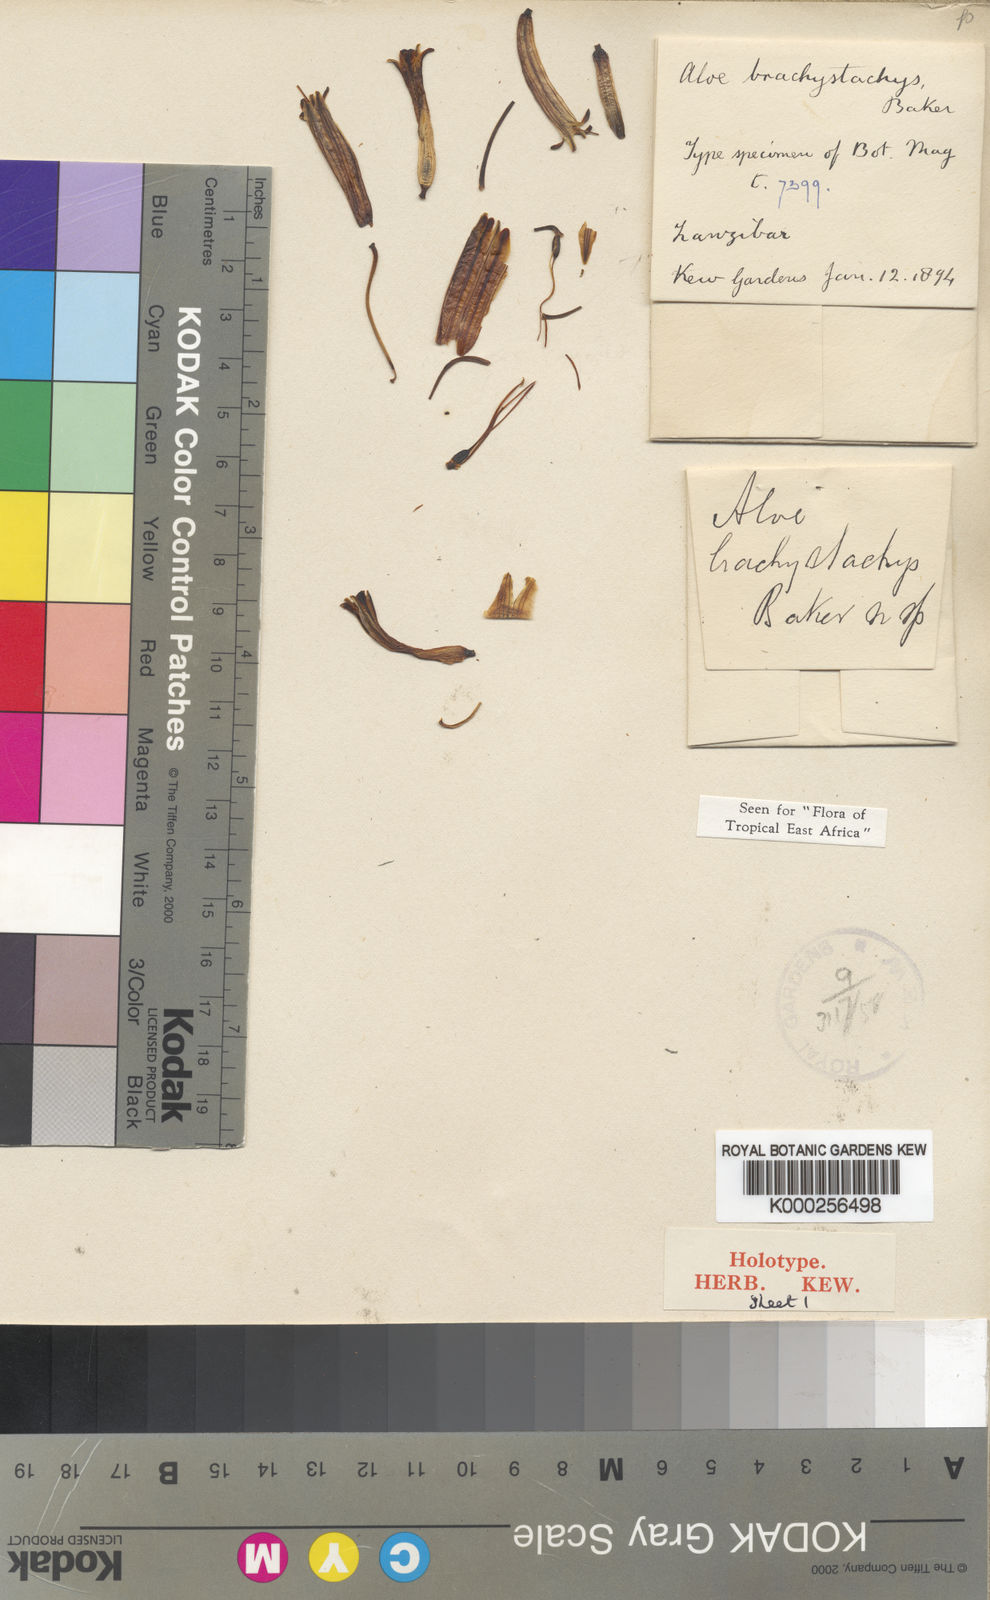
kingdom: Plantae
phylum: Tracheophyta
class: Liliopsida
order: Asparagales
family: Asphodelaceae
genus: Aloe
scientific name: Aloe brachystachys
